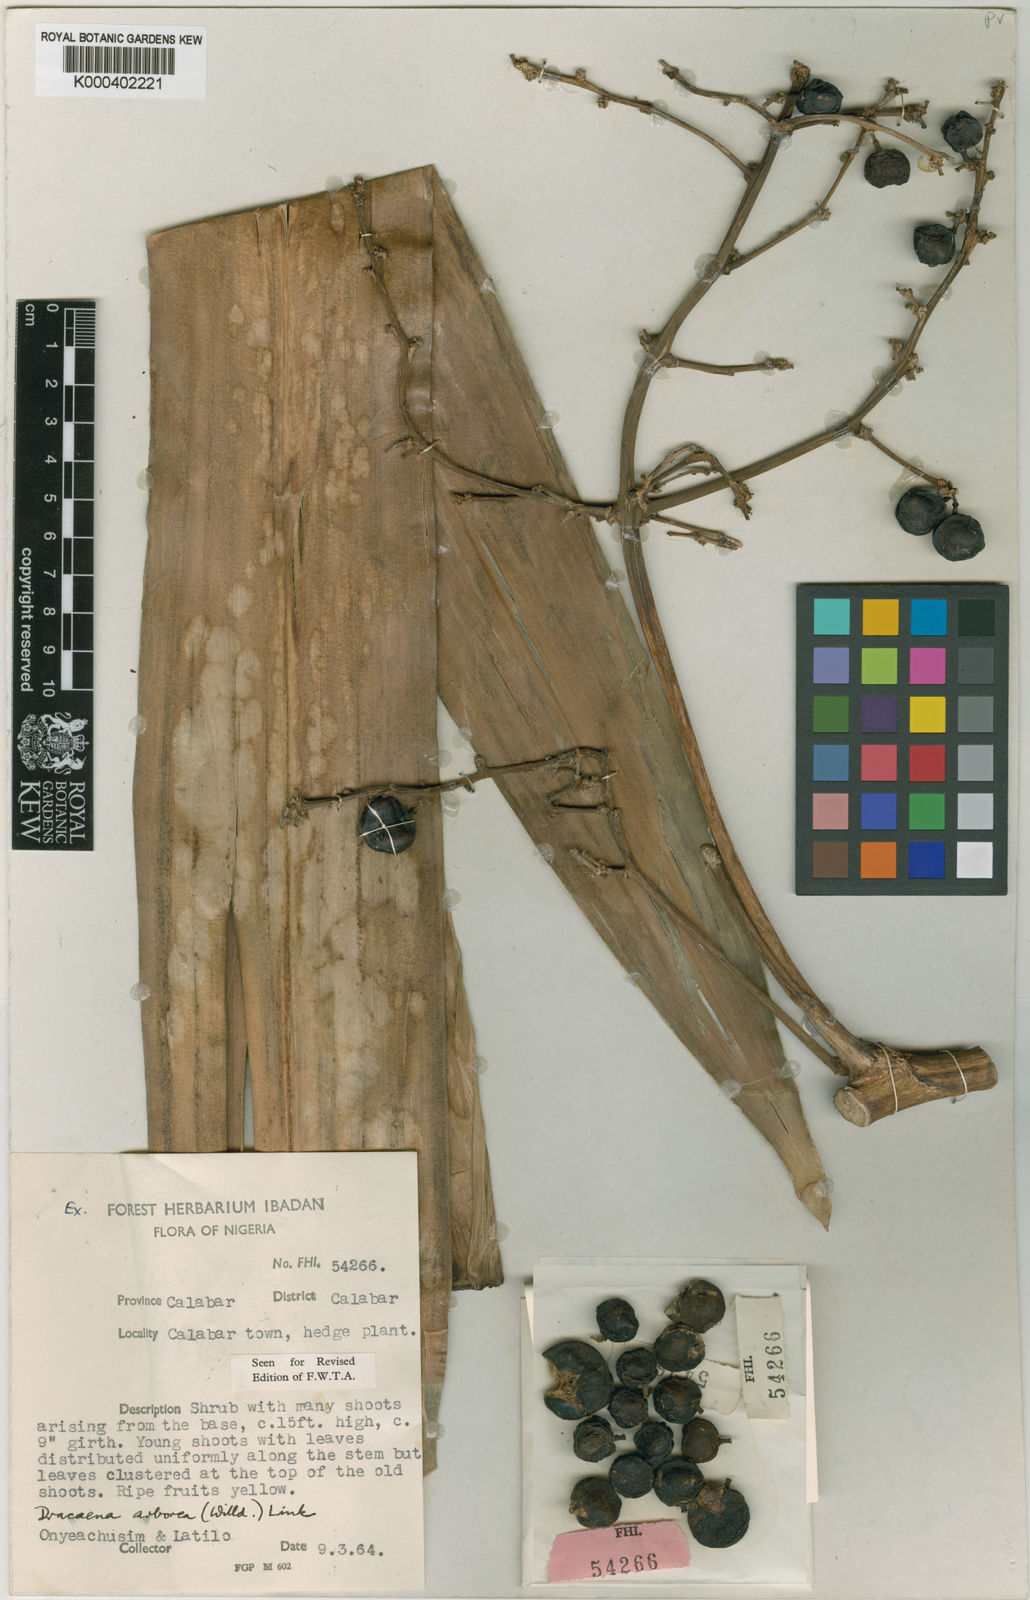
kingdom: Plantae
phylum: Tracheophyta
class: Liliopsida
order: Asparagales
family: Asparagaceae
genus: Dracaena
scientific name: Dracaena fragrans
